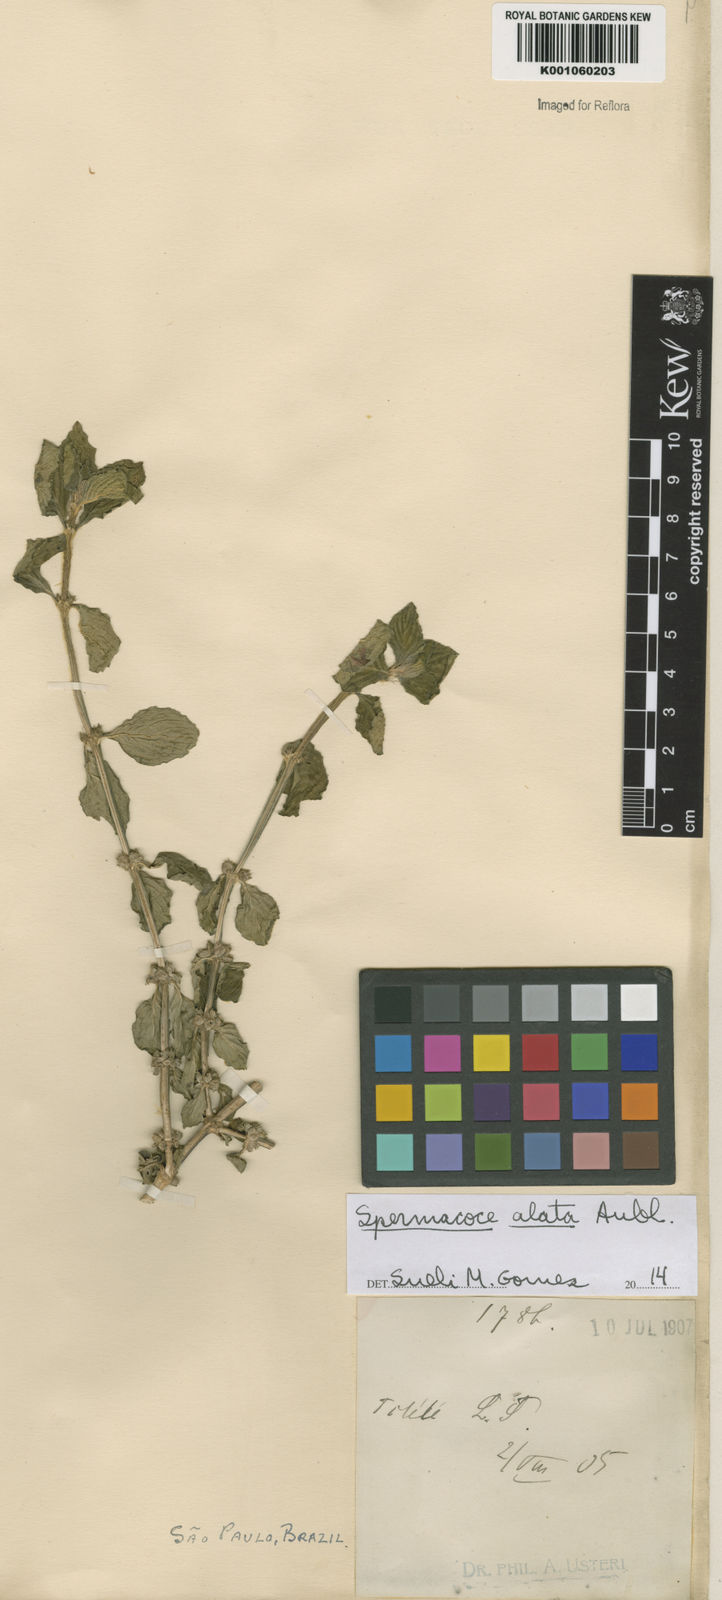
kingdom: Plantae
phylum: Tracheophyta
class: Magnoliopsida
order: Gentianales
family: Rubiaceae
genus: Spermacoce
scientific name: Spermacoce
